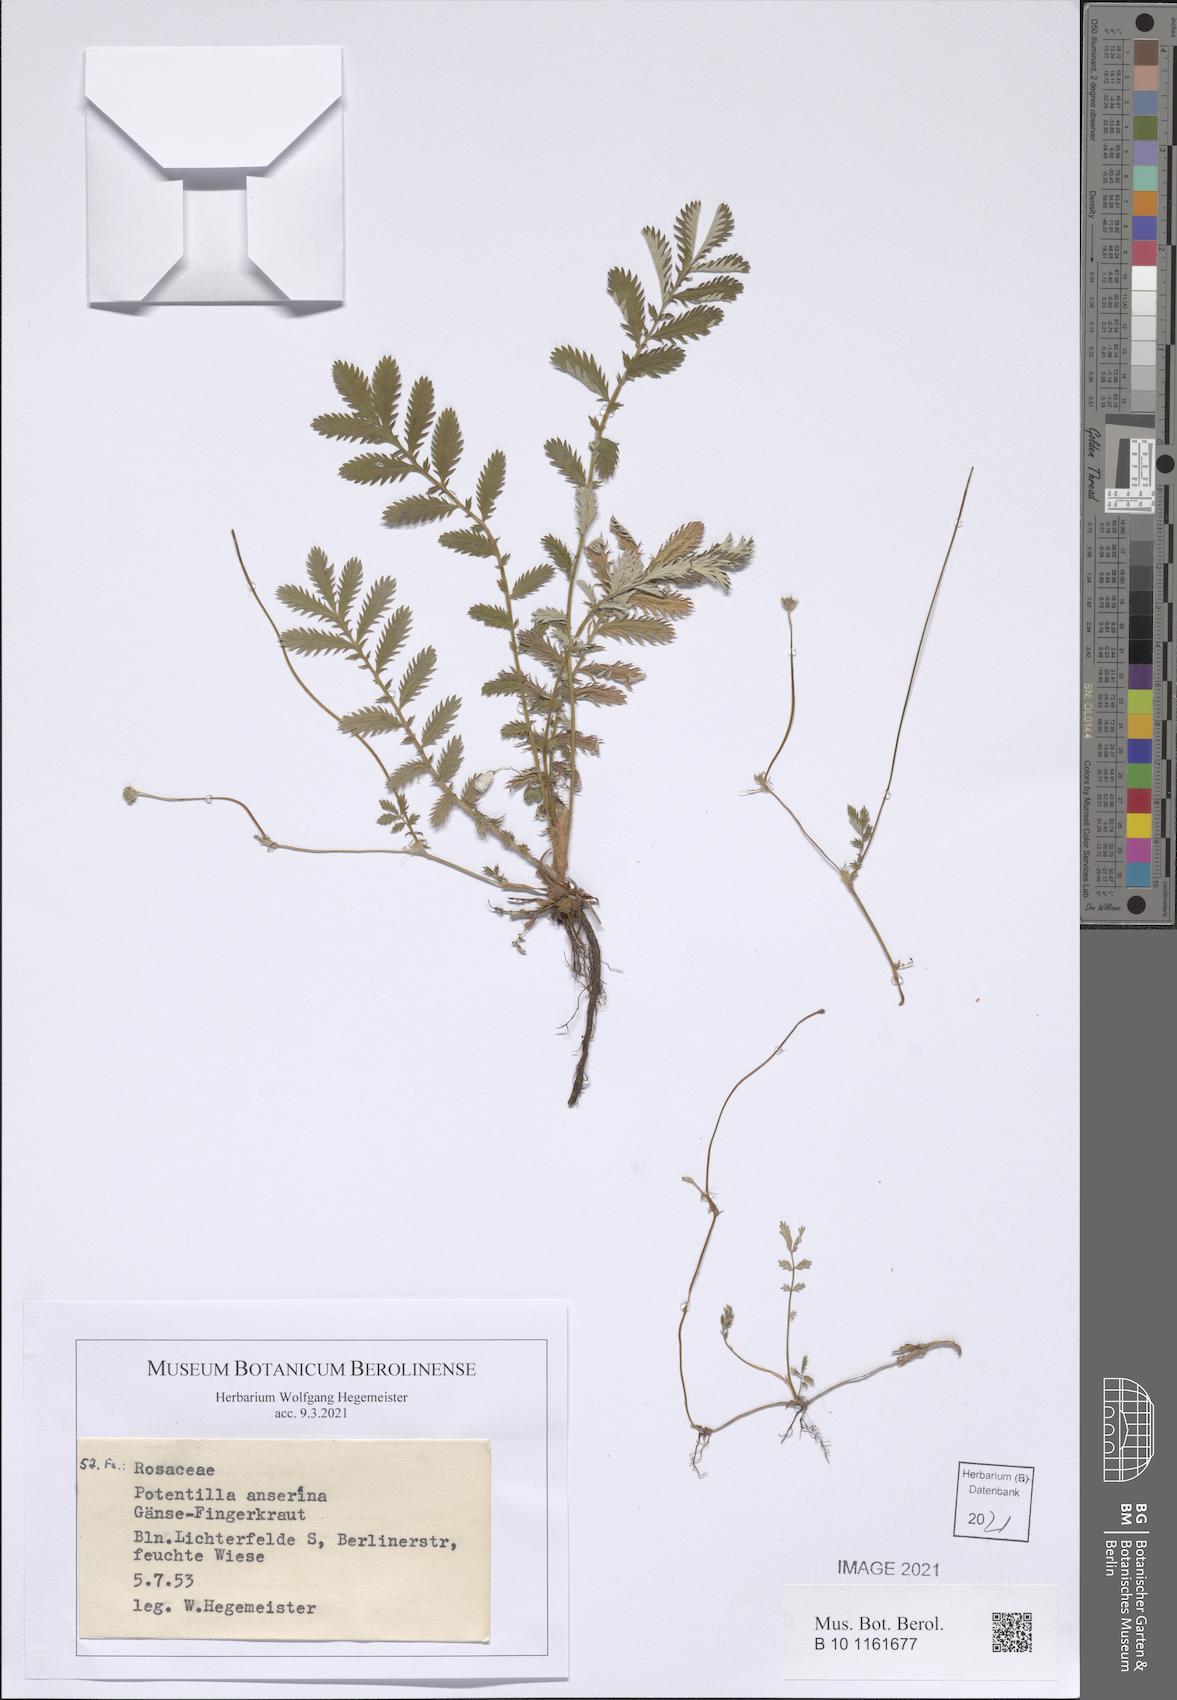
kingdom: Plantae
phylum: Tracheophyta
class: Magnoliopsida
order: Rosales
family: Rosaceae
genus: Argentina
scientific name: Argentina anserina
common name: Common silverweed
